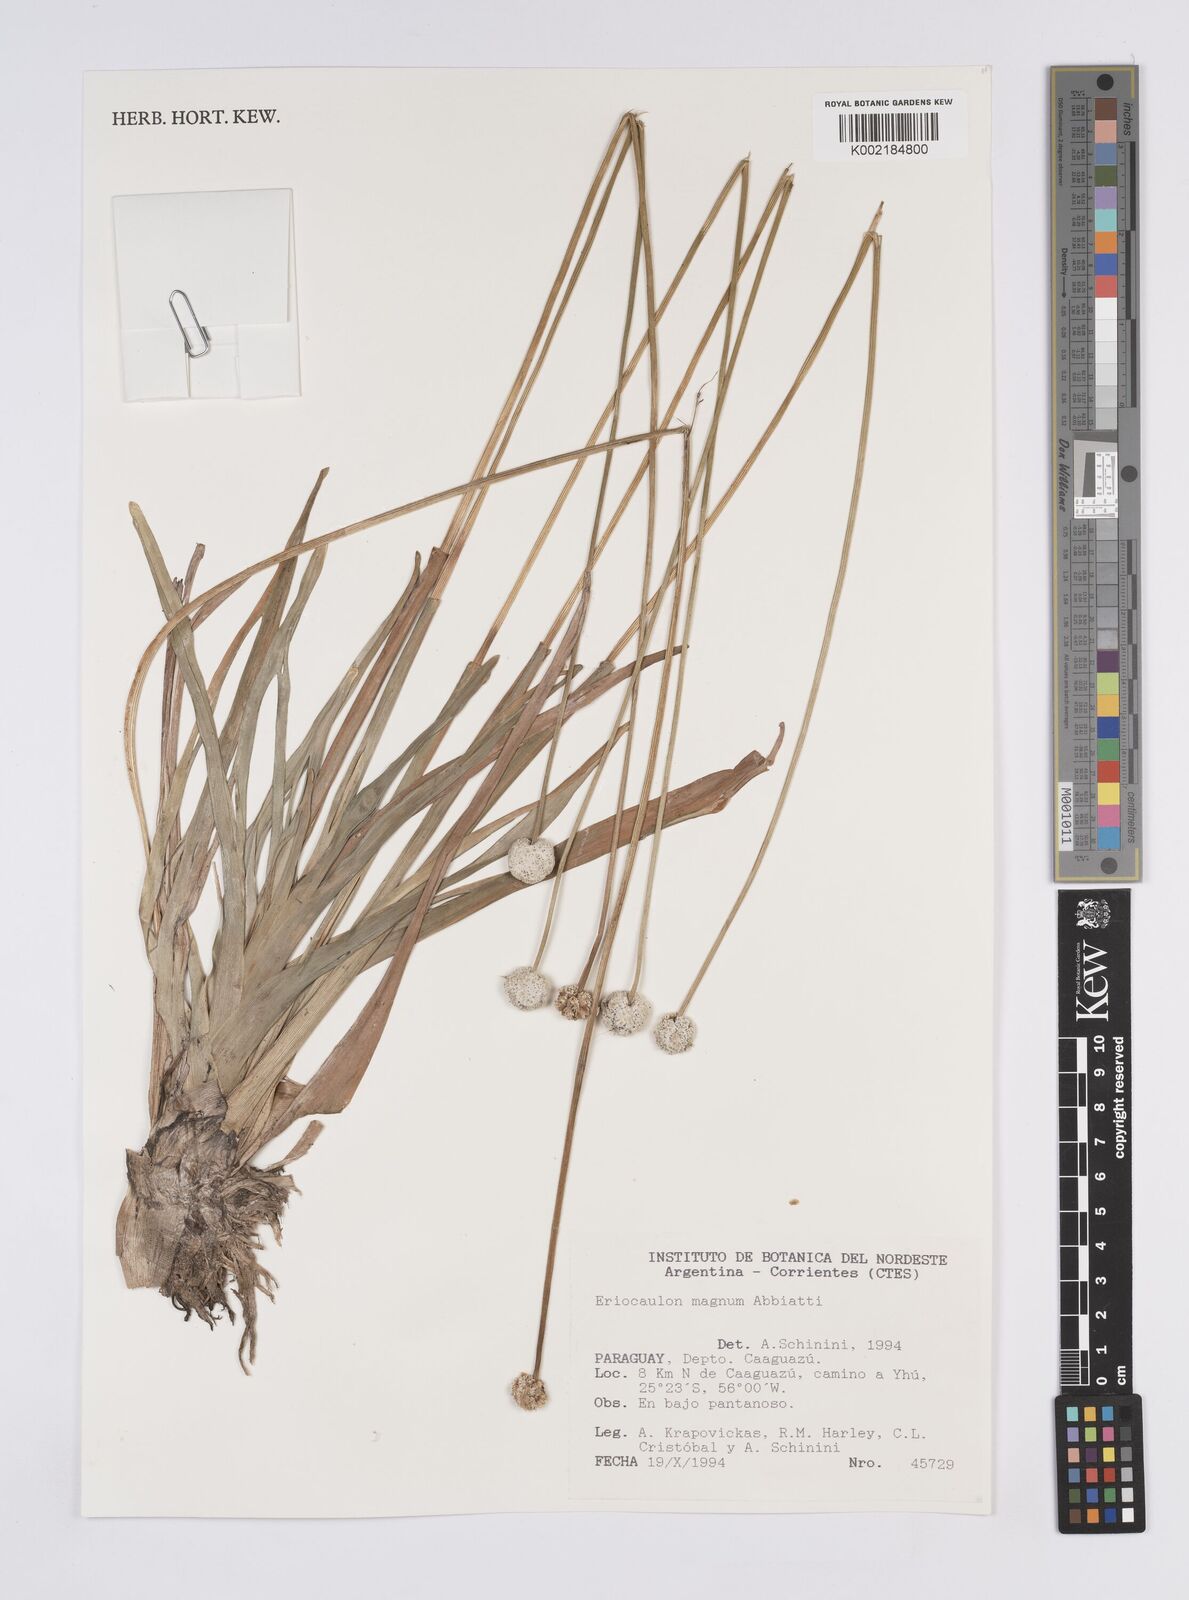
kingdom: Plantae
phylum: Tracheophyta
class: Liliopsida
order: Poales
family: Eriocaulaceae
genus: Eriocaulon
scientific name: Eriocaulon magnum
